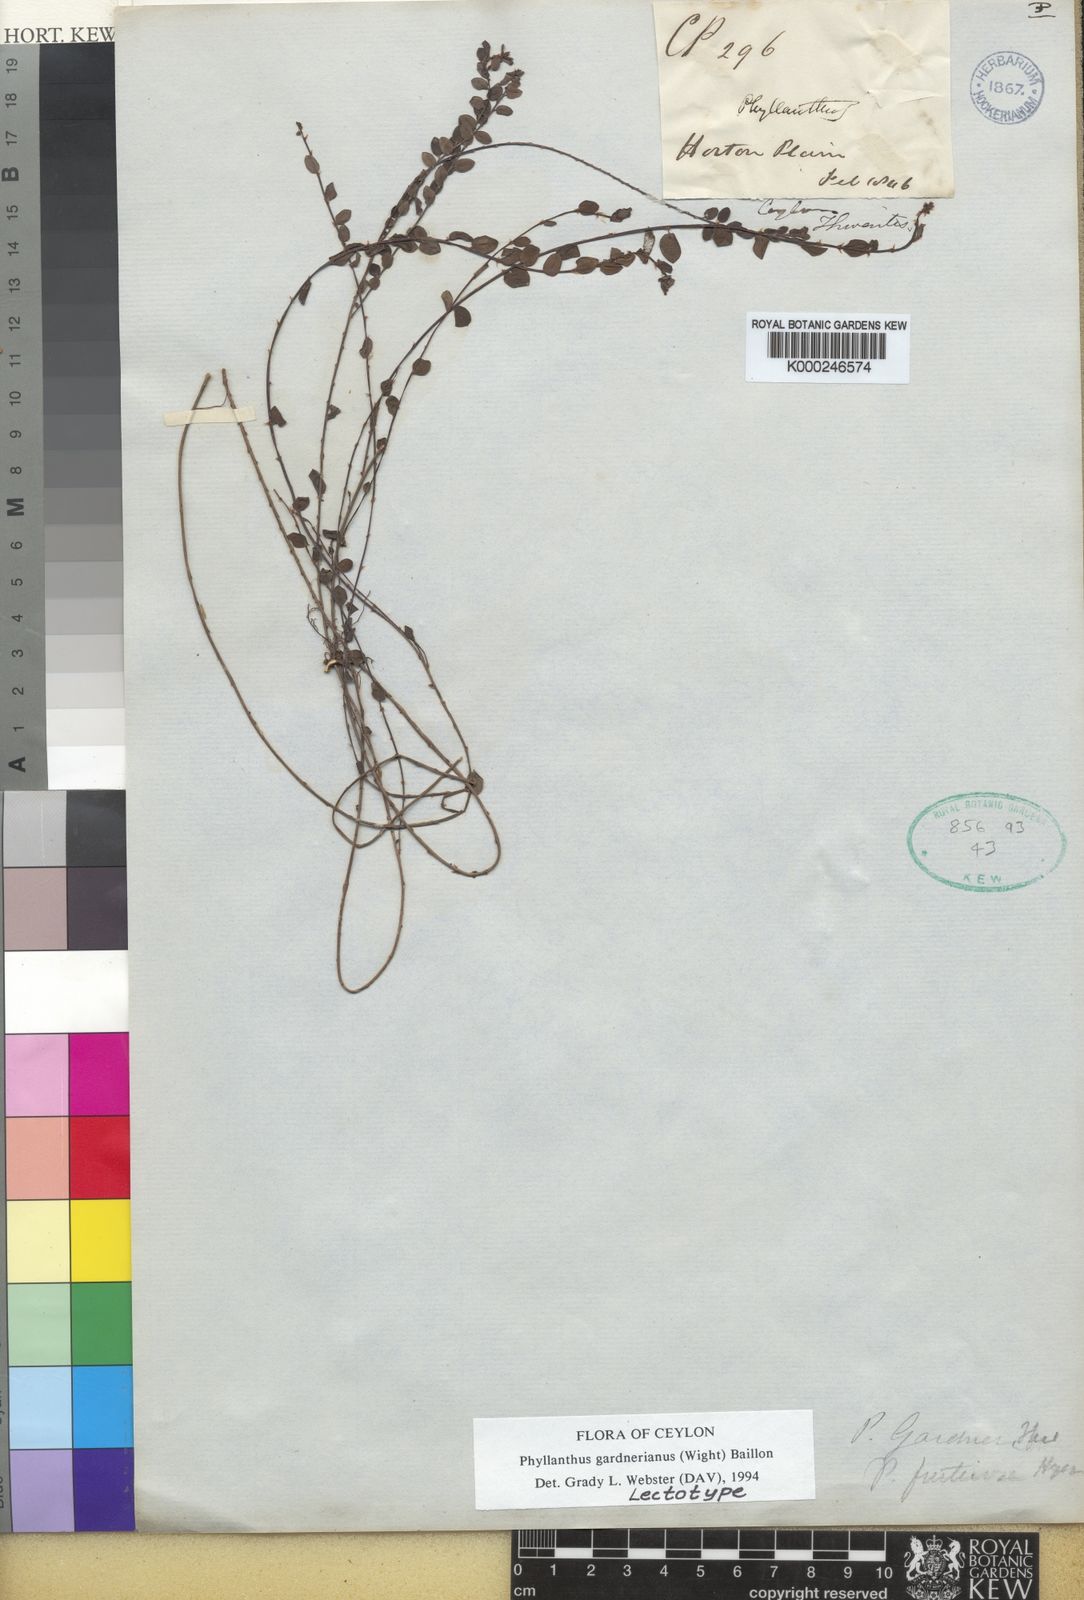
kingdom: Plantae
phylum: Tracheophyta
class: Magnoliopsida
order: Malpighiales
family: Phyllanthaceae
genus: Phyllanthus
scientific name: Phyllanthus gardnerianus
